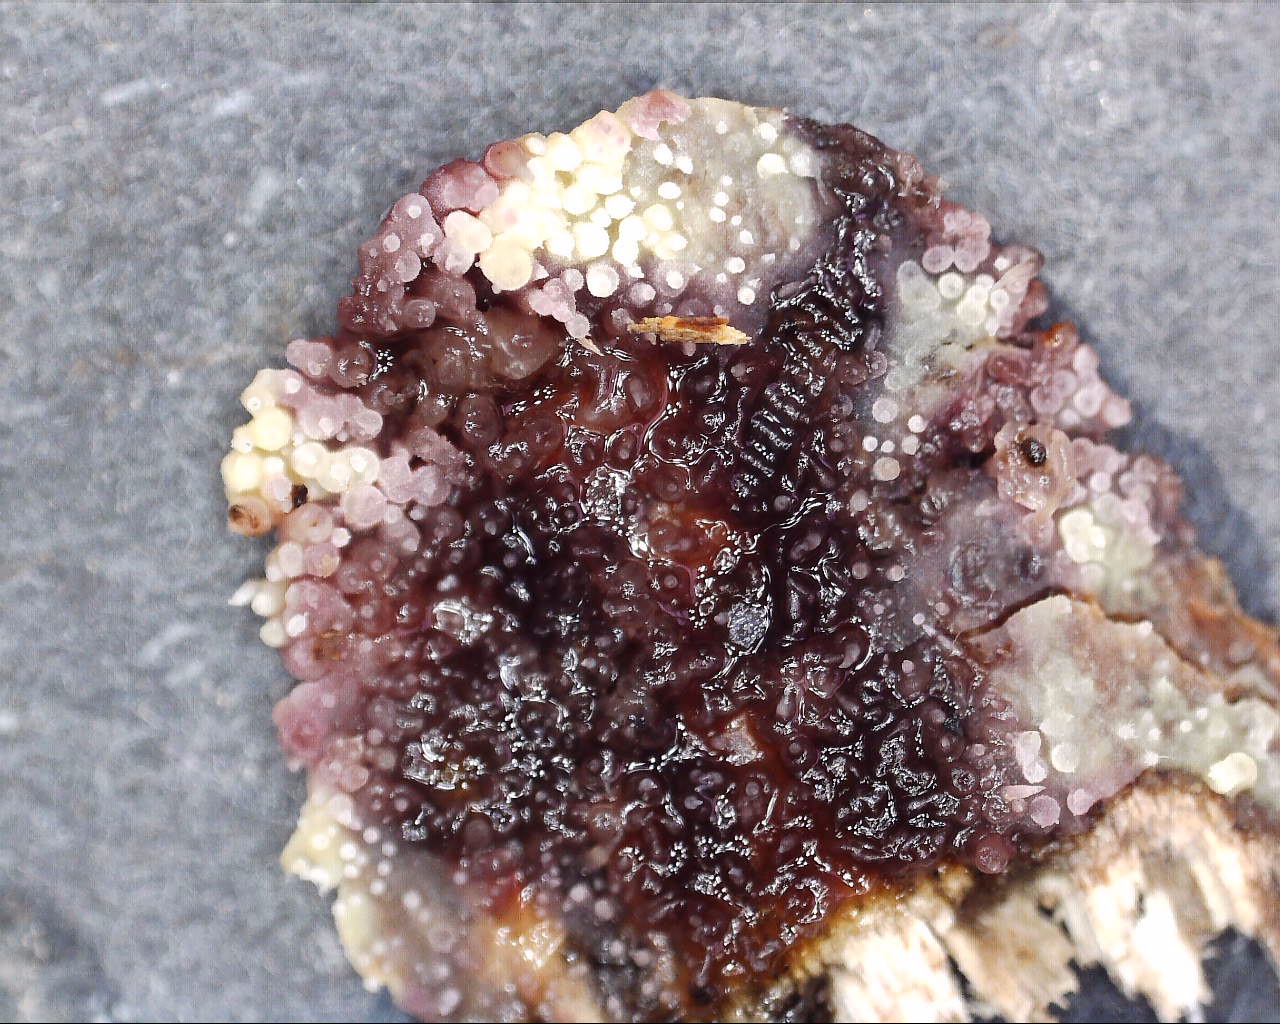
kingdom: Fungi
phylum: Basidiomycota
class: Agaricomycetes
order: Polyporales
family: Meruliaceae
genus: Mycoacia
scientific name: Mycoacia uda
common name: citrongul vokspig
